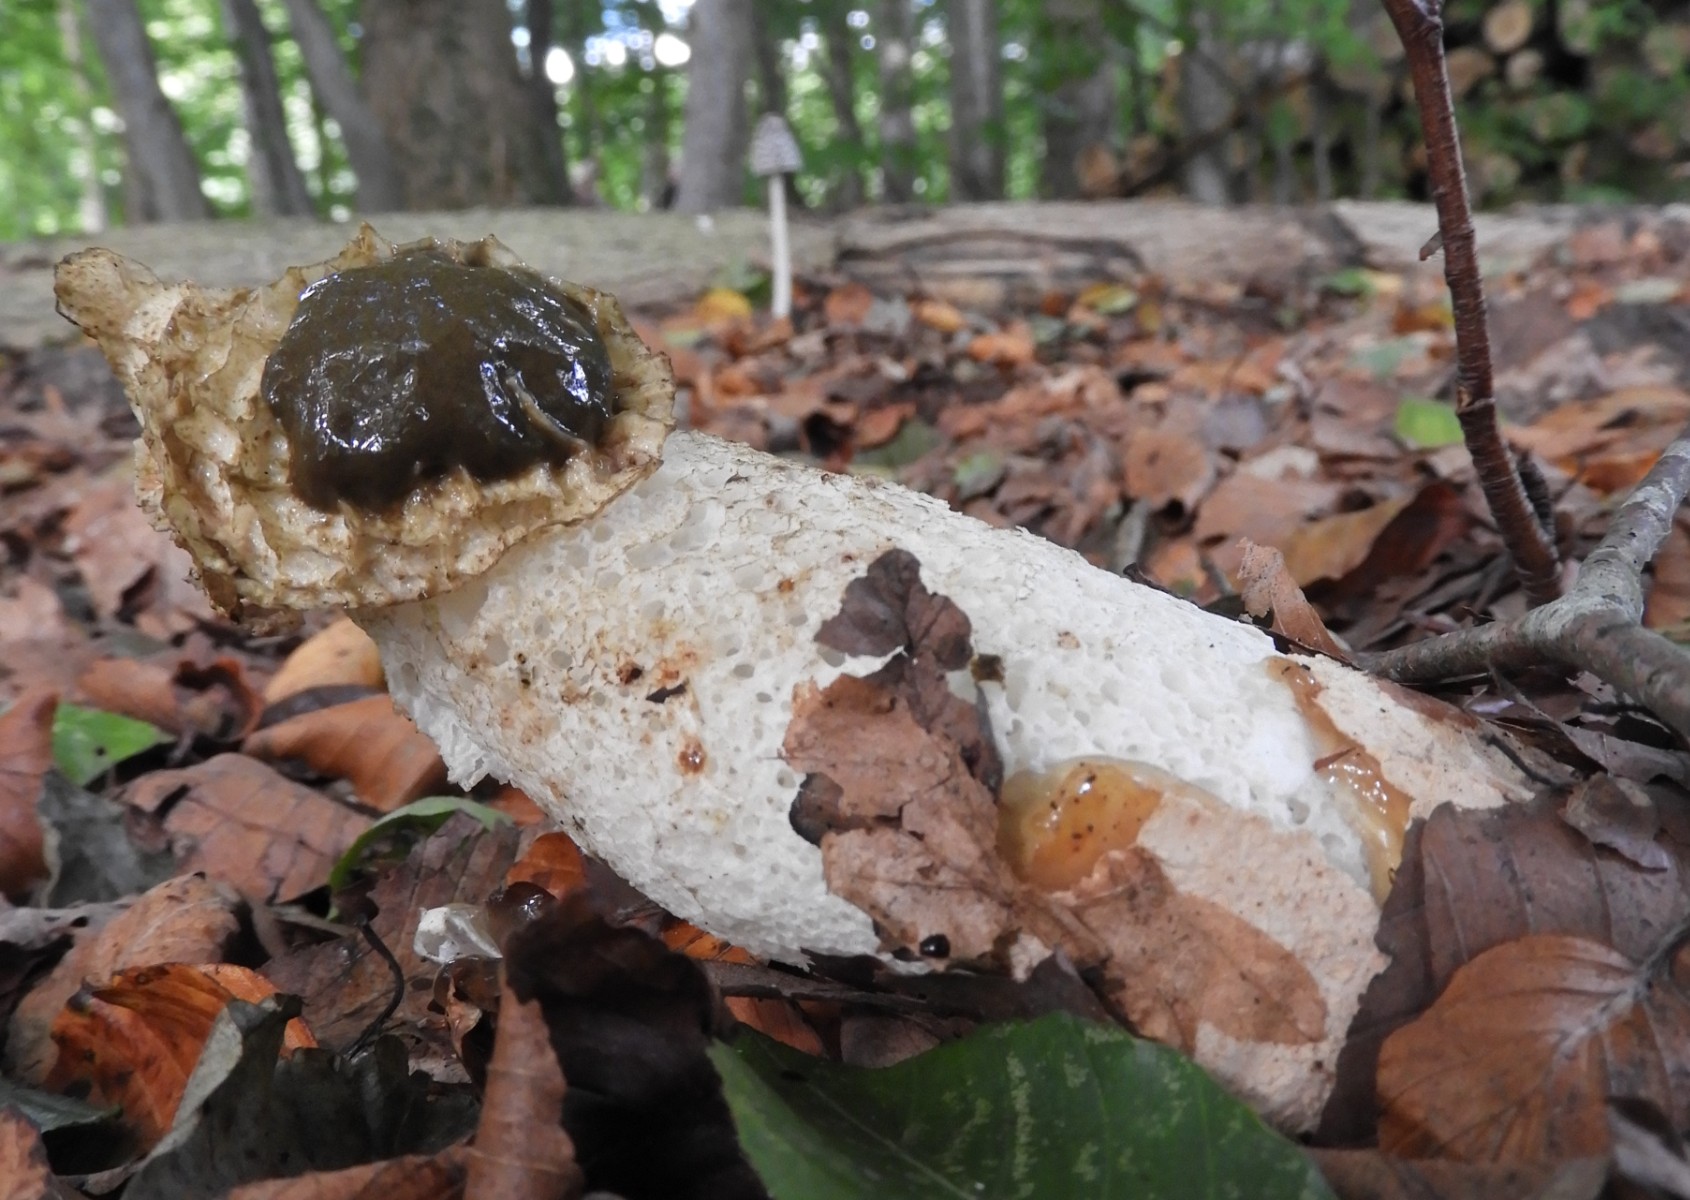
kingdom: Fungi
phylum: Basidiomycota
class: Agaricomycetes
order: Phallales
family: Phallaceae
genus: Phallus
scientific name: Phallus impudicus
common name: almindelig stinksvamp
